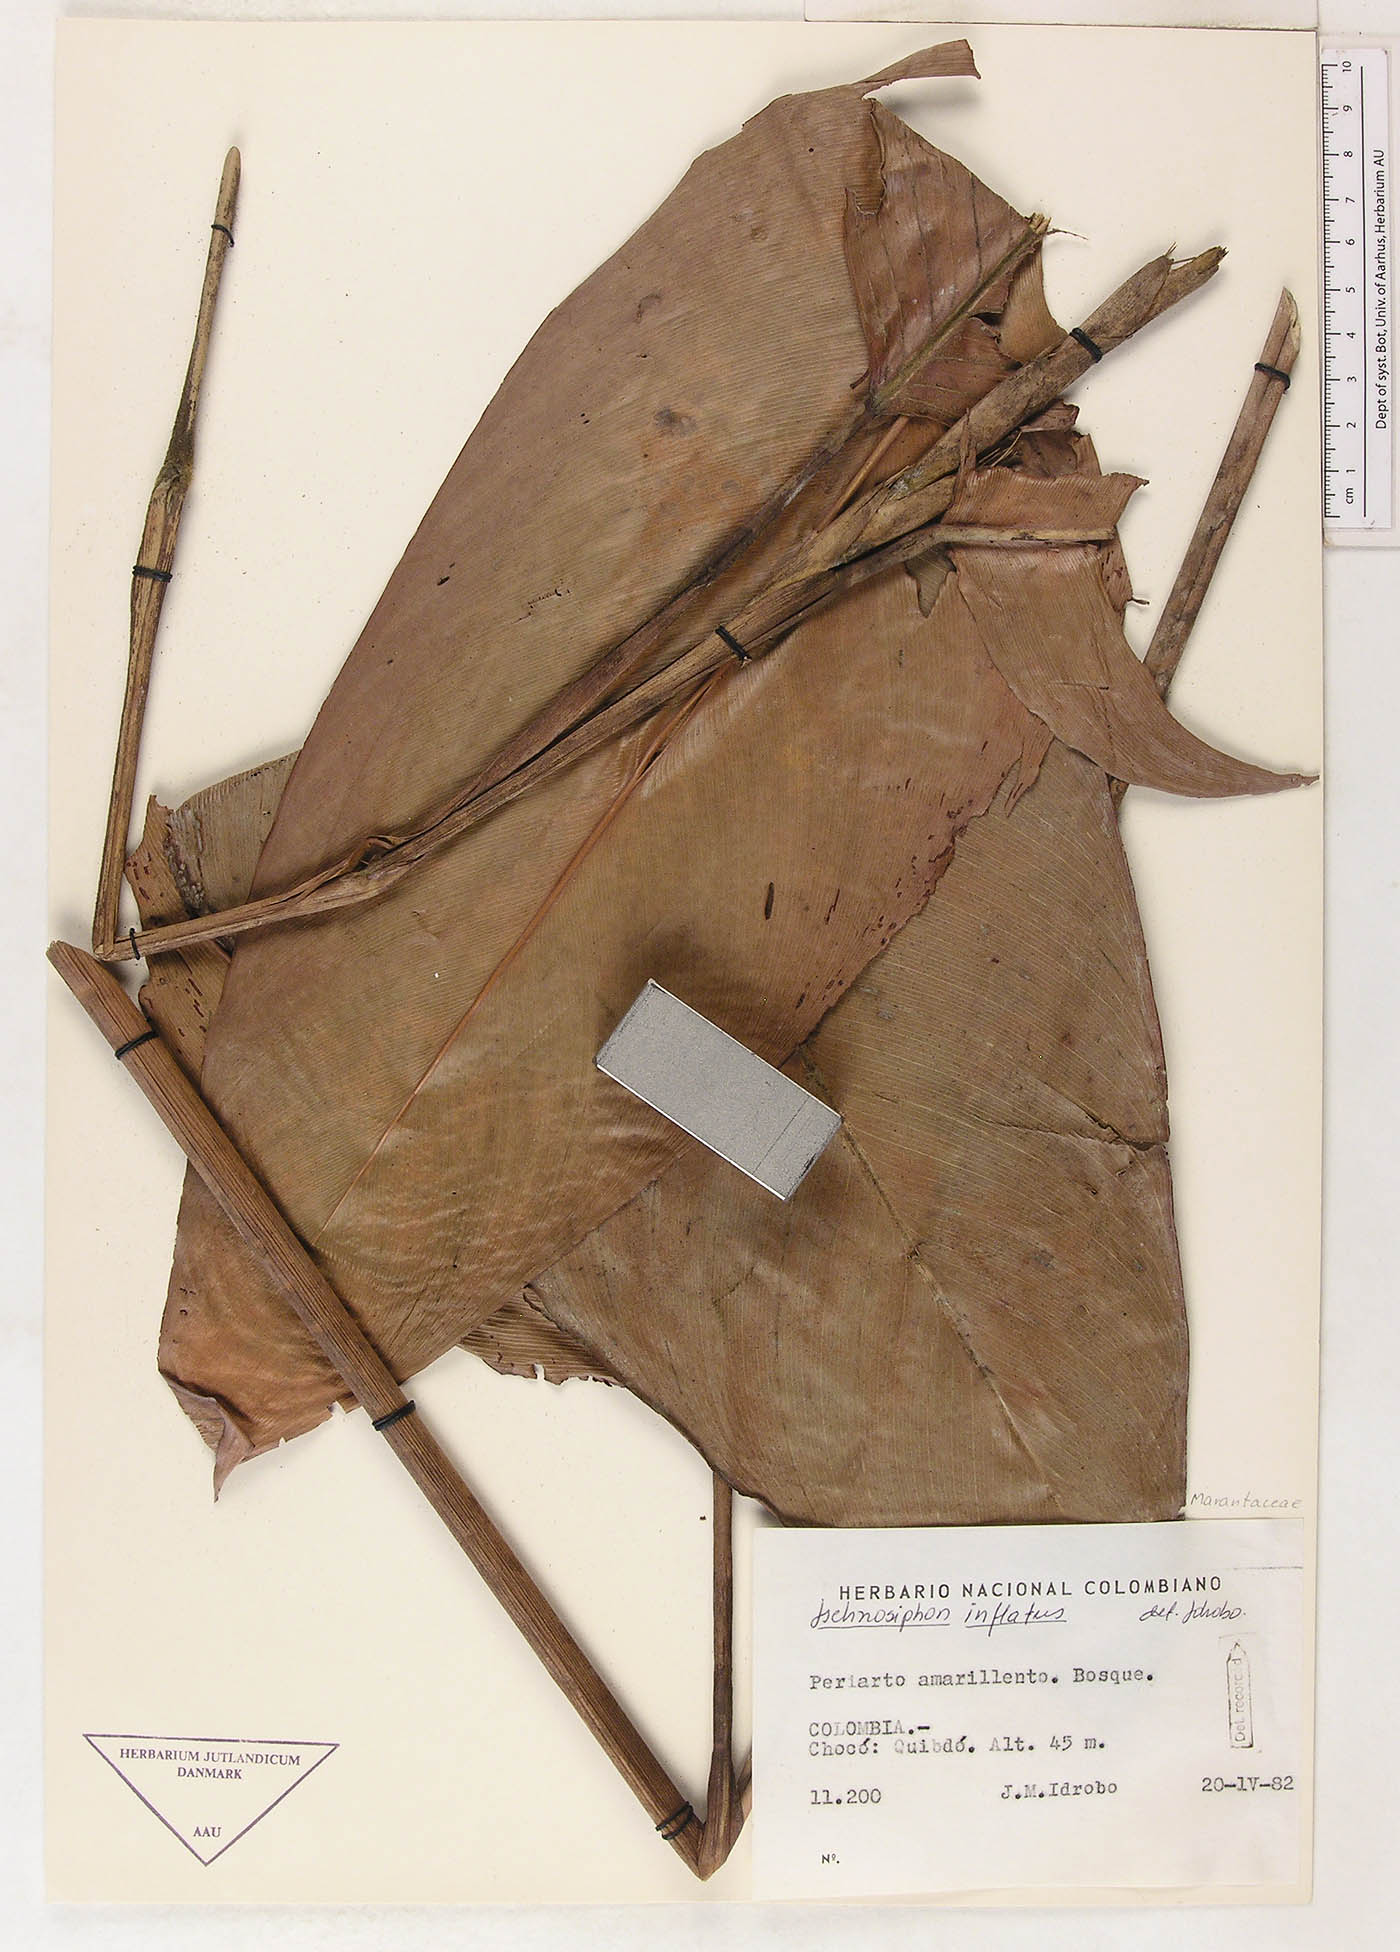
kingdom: Plantae
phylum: Tracheophyta
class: Liliopsida
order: Zingiberales
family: Marantaceae
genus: Ischnosiphon
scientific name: Ischnosiphon inflatus
